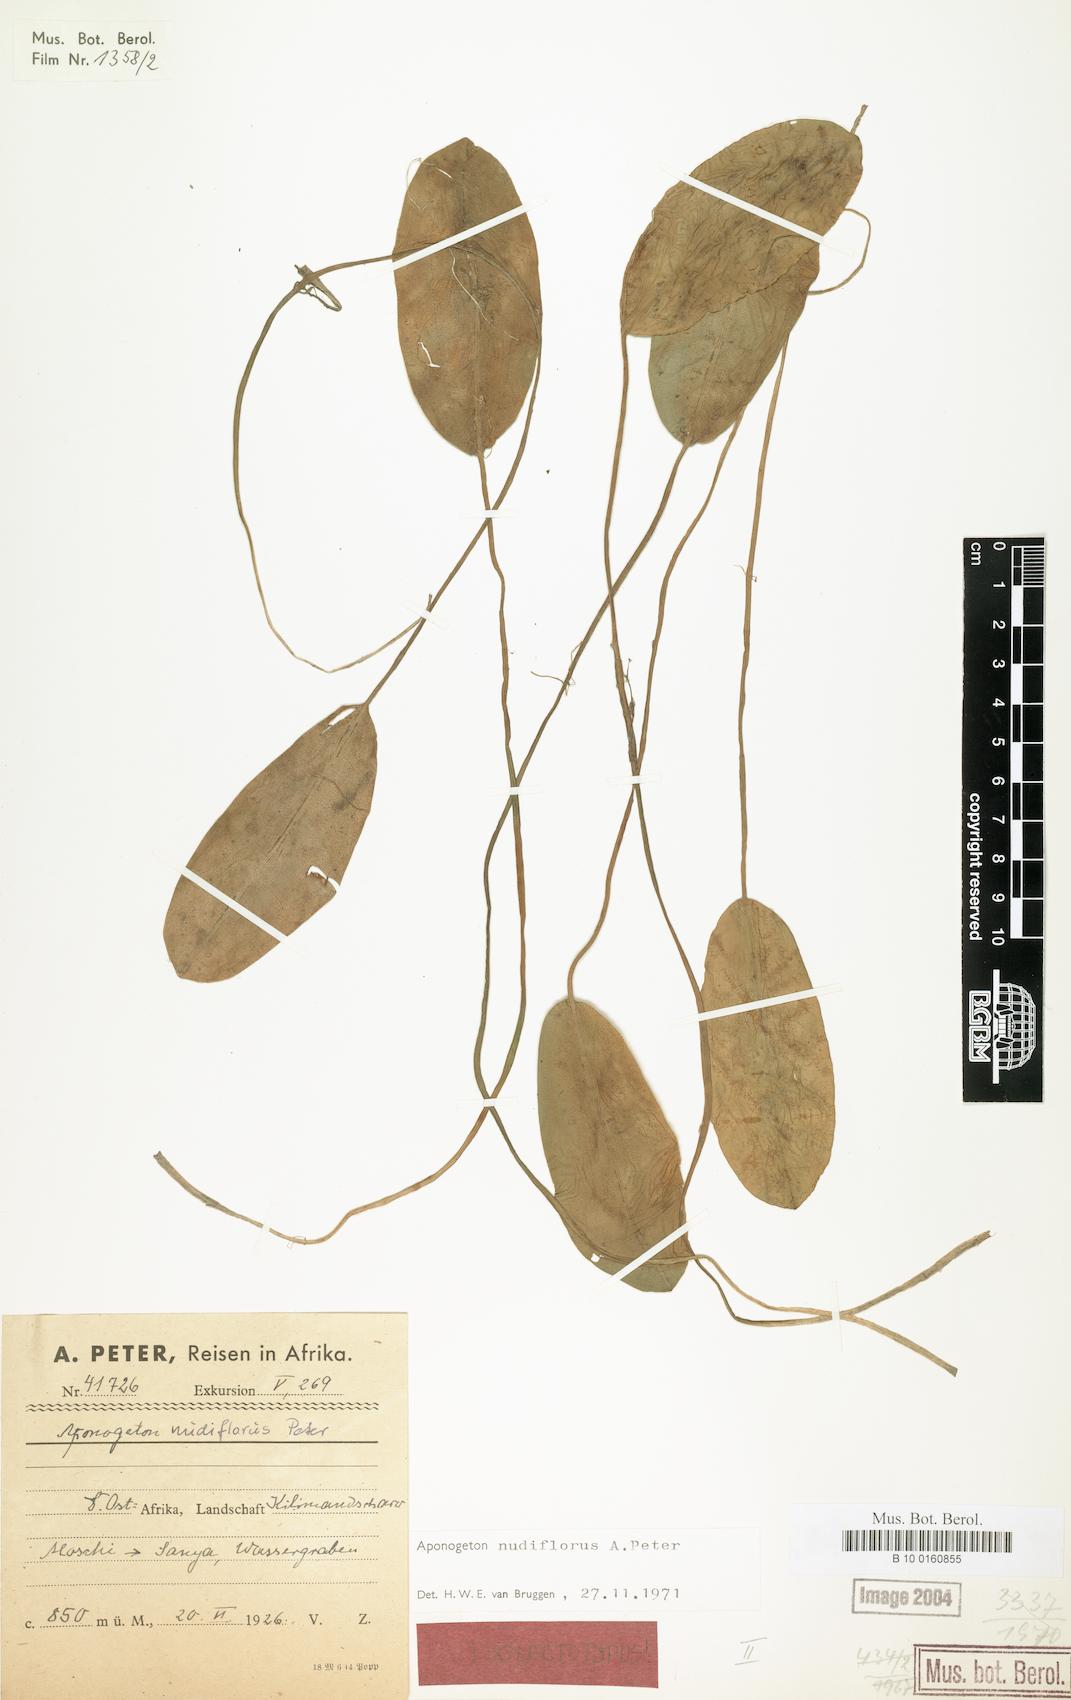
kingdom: Plantae
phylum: Tracheophyta
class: Liliopsida
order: Alismatales
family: Aponogetonaceae
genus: Aponogeton
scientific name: Aponogeton nudiflorus
